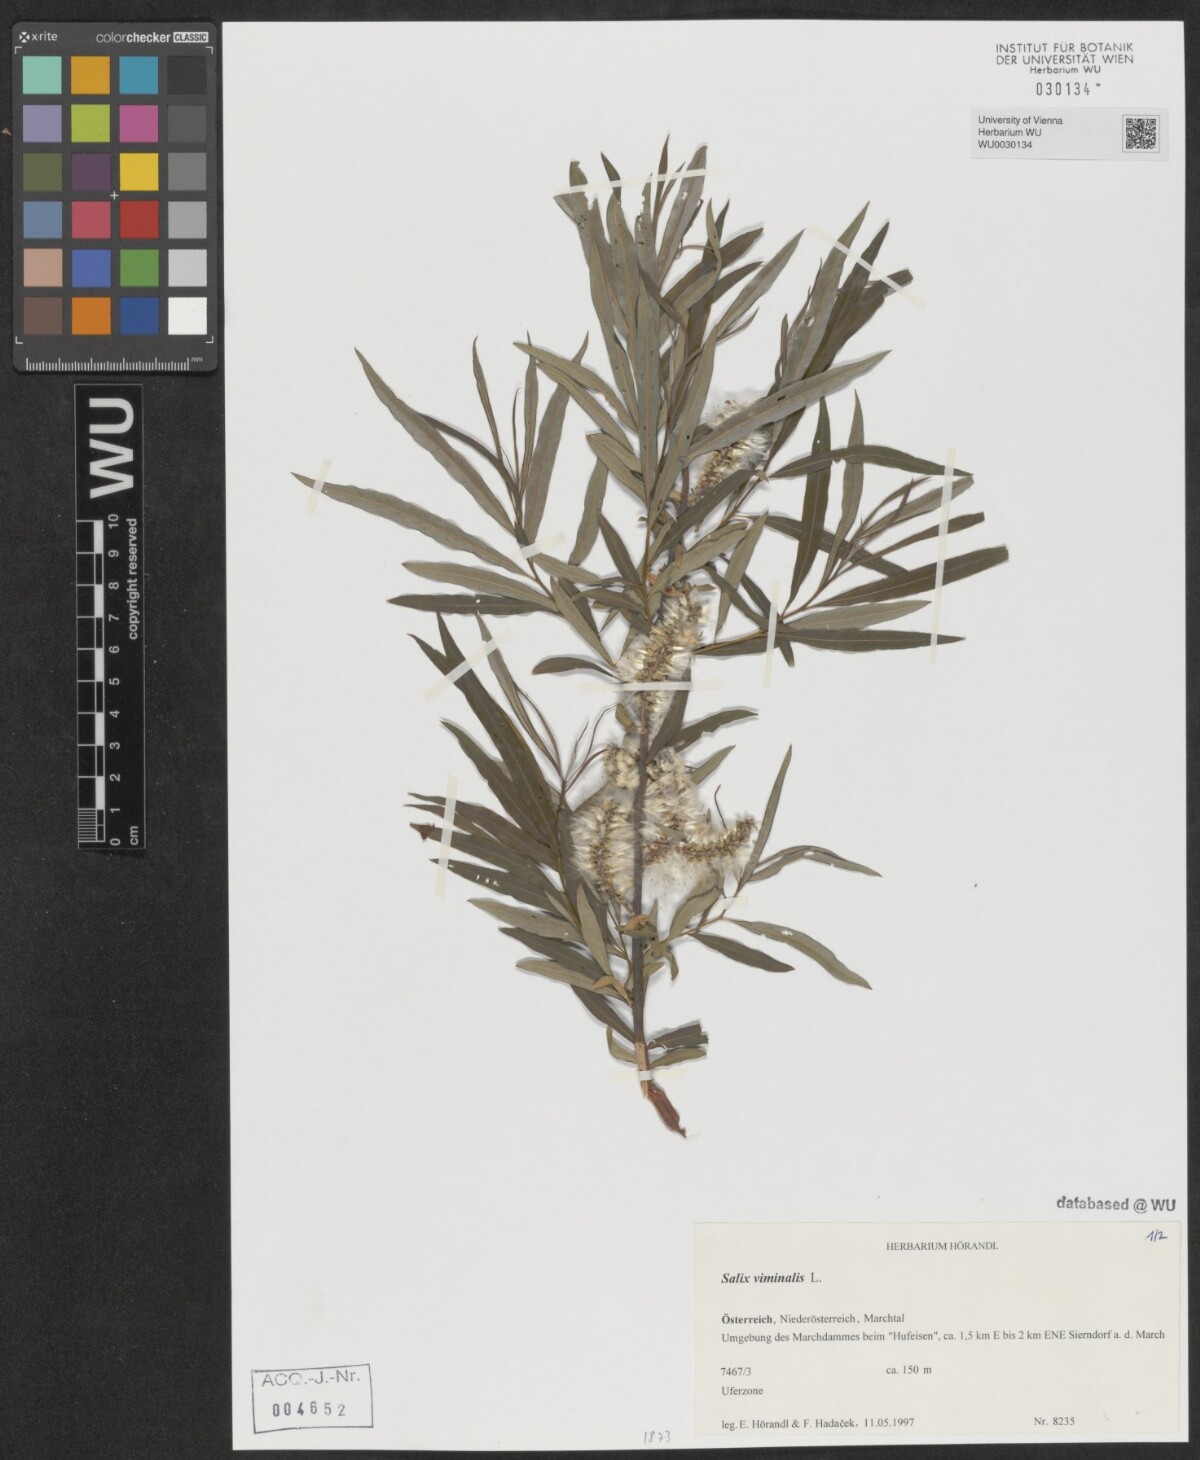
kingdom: Plantae
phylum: Tracheophyta
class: Magnoliopsida
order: Malpighiales
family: Salicaceae
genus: Salix
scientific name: Salix viminalis
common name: Osier
